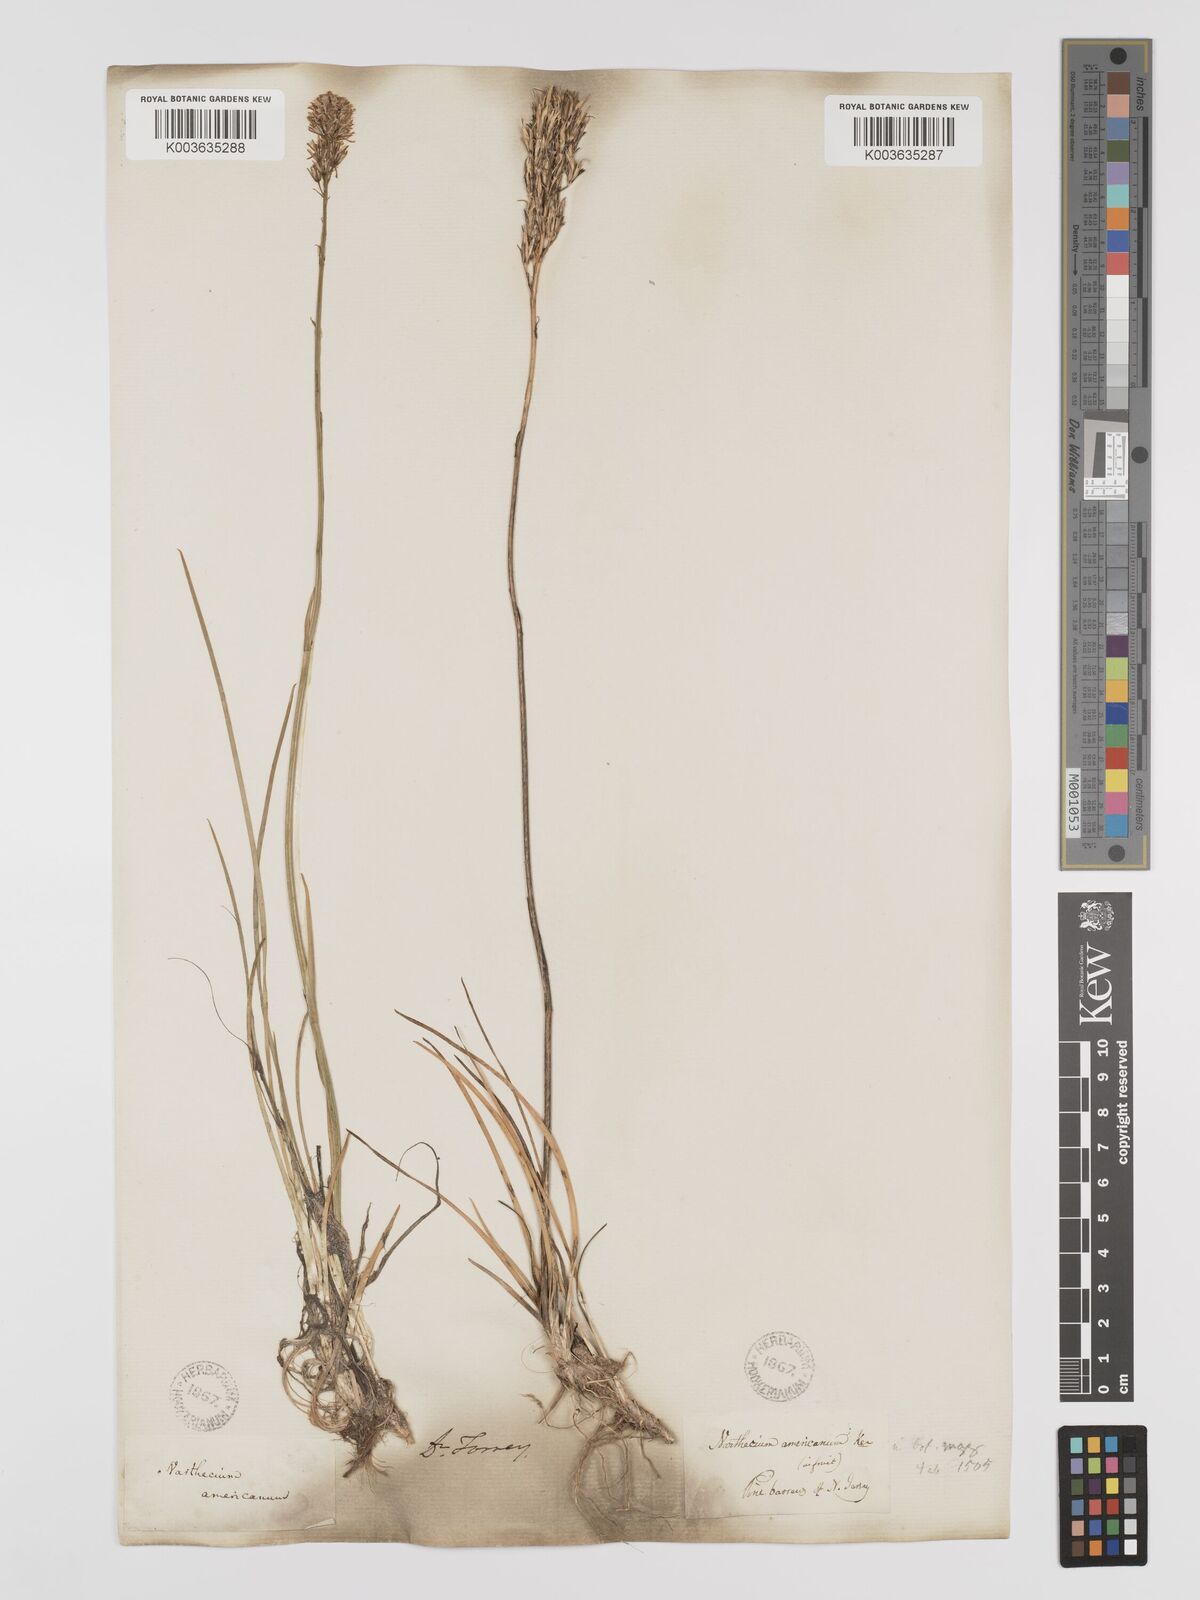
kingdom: Plantae
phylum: Tracheophyta
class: Liliopsida
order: Dioscoreales
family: Nartheciaceae
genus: Narthecium
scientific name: Narthecium americanum
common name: Bog-asphodel
